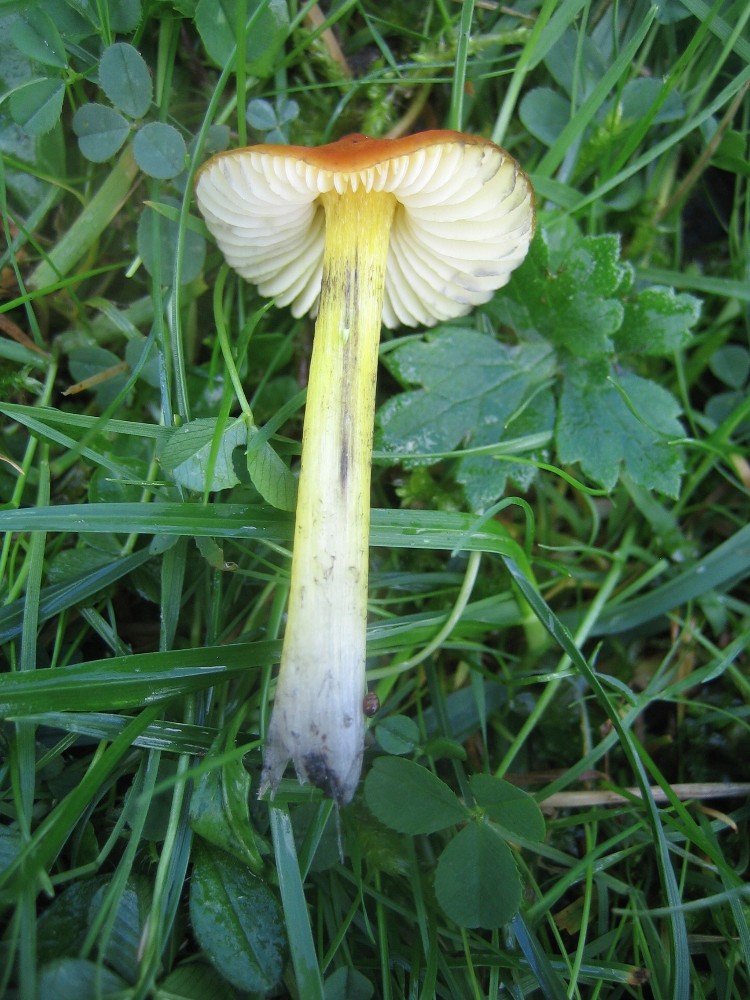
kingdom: Fungi
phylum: Basidiomycota
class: Agaricomycetes
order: Agaricales
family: Hygrophoraceae
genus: Hygrocybe
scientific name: Hygrocybe conica
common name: kegle-vokshat
